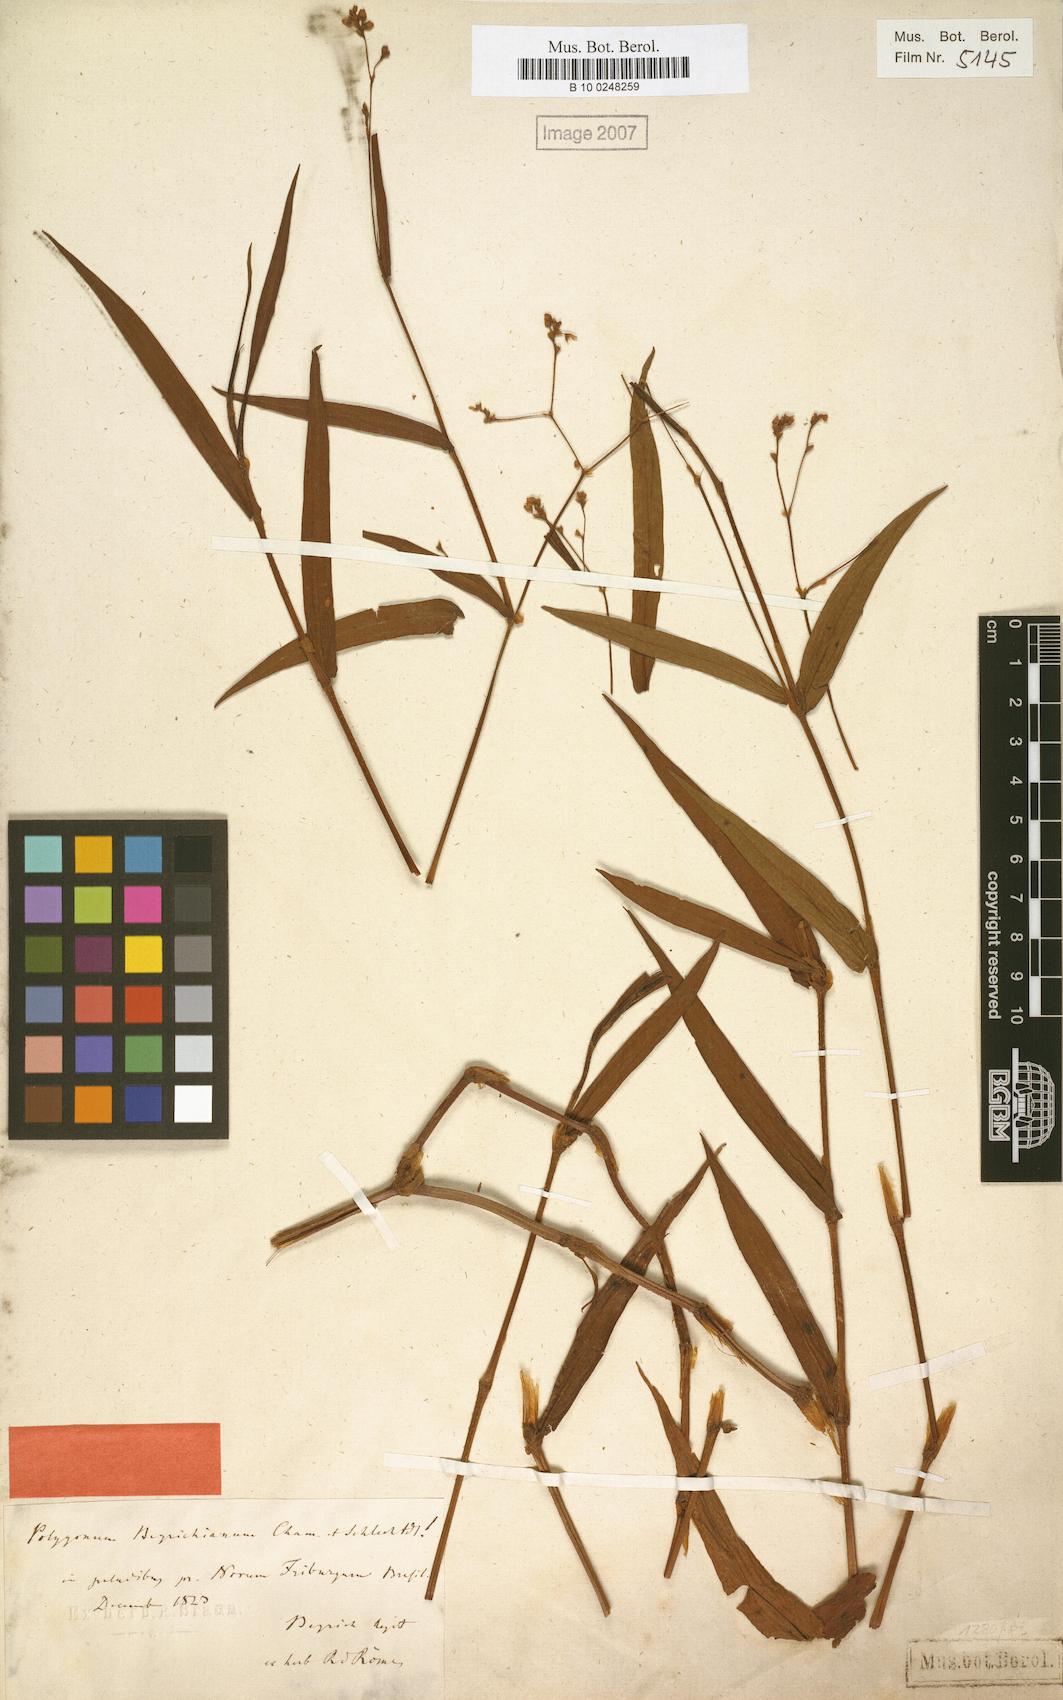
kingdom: Plantae
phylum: Tracheophyta
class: Magnoliopsida
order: Caryophyllales
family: Polygonaceae
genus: Persicaria
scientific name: Persicaria meisneriana
